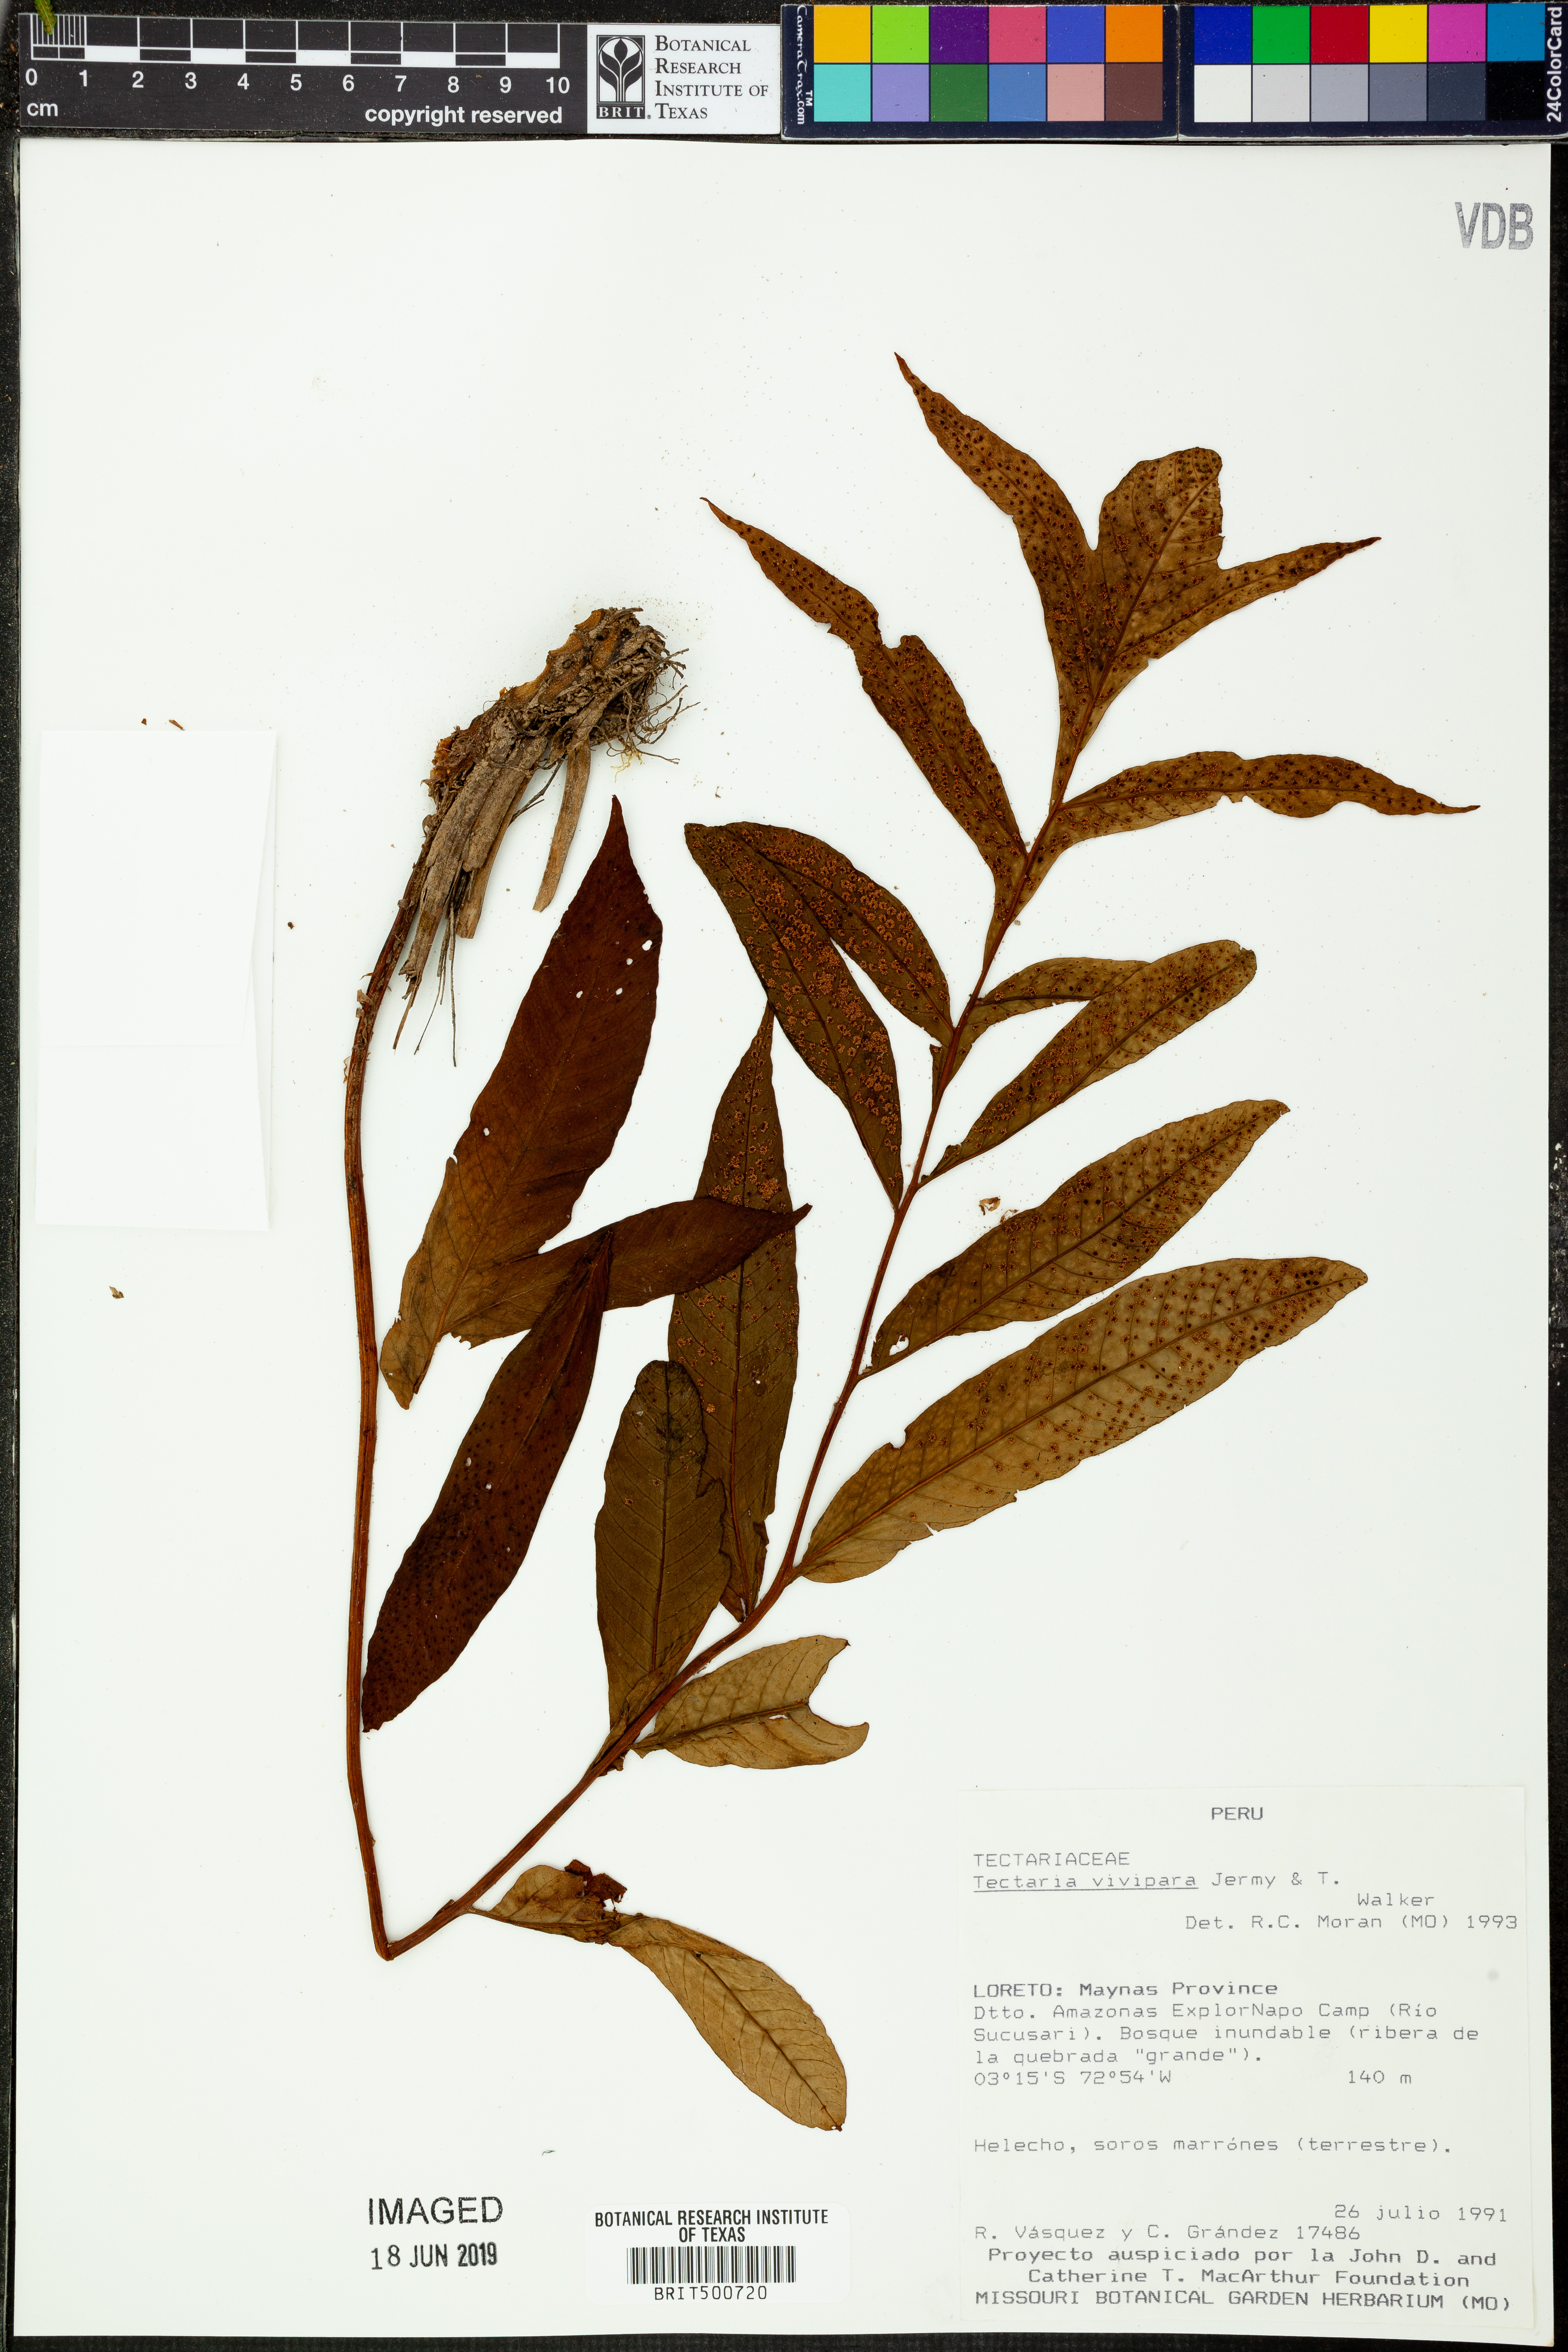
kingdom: Plantae
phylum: Tracheophyta
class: Polypodiopsida
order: Polypodiales
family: Tectariaceae
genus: Tectaria
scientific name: Tectaria incisa
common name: Incised halberd fern
